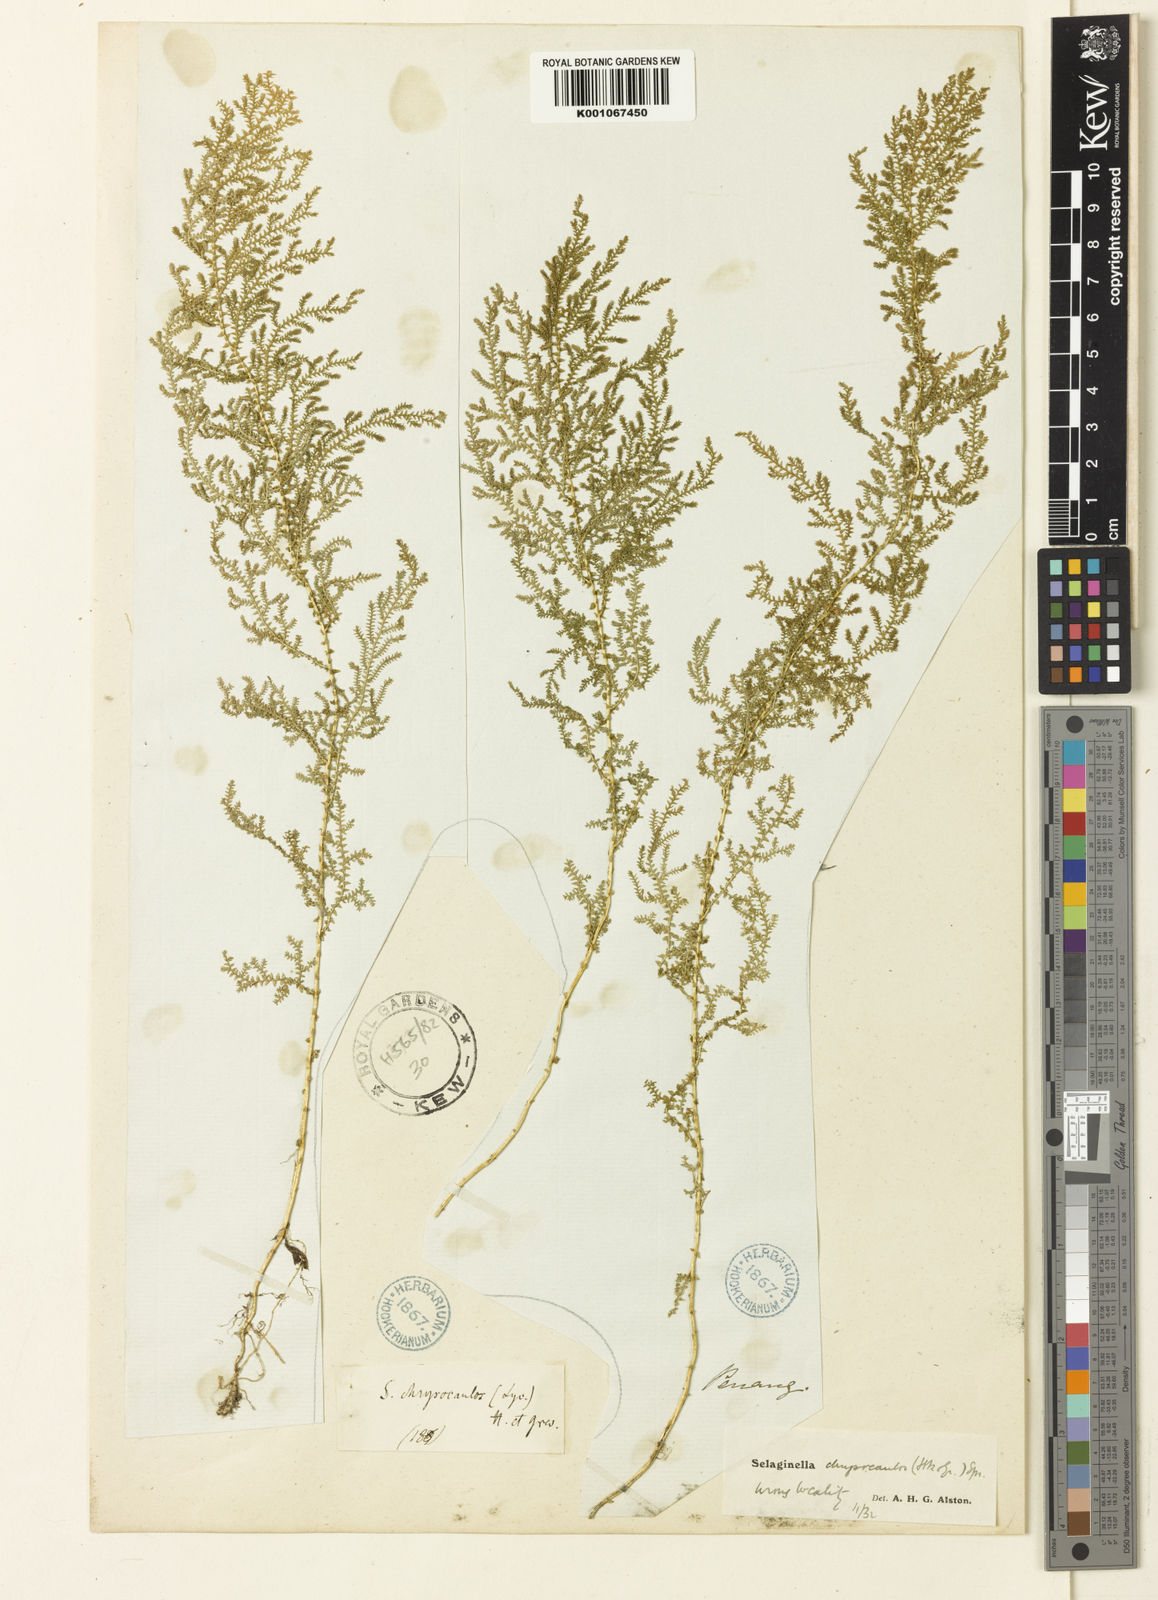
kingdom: Plantae
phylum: Tracheophyta
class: Lycopodiopsida
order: Selaginellales
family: Selaginellaceae
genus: Selaginella
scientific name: Selaginella chrysocaulos
